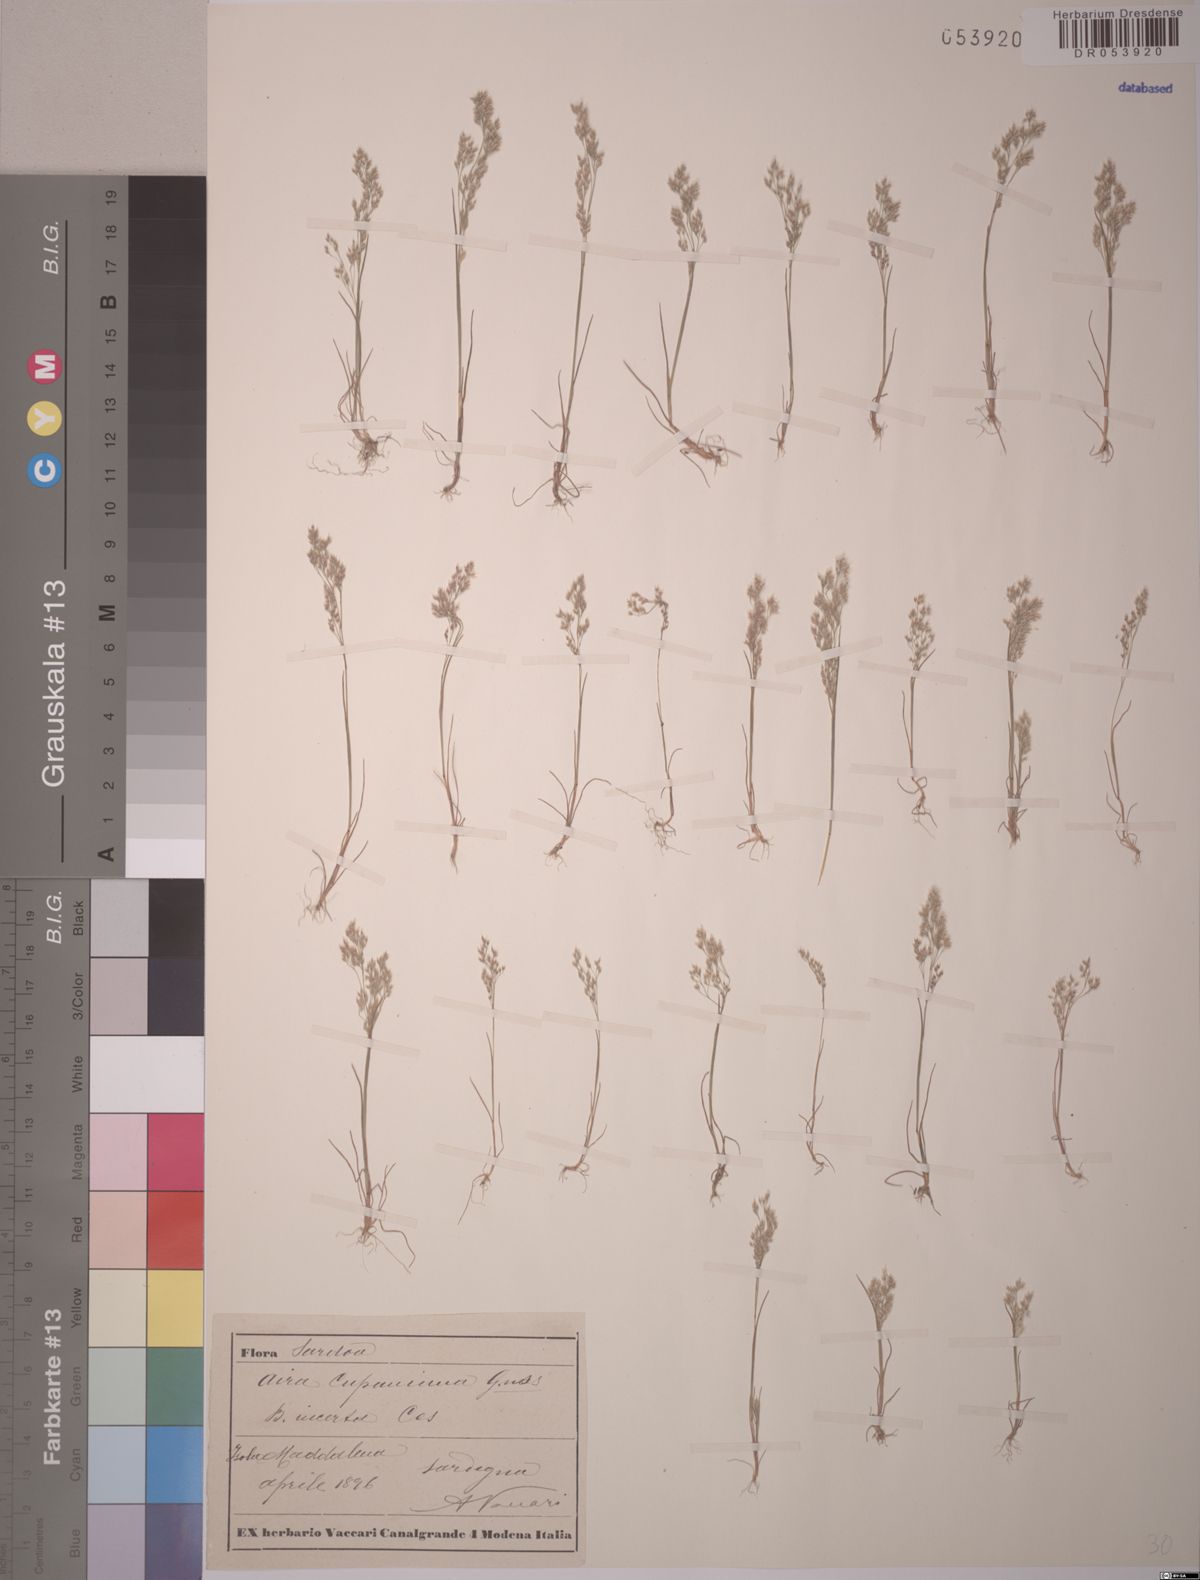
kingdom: Plantae
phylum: Tracheophyta
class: Liliopsida
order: Poales
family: Poaceae
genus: Aira
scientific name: Aira cupaniana
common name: Silver hairgrass
